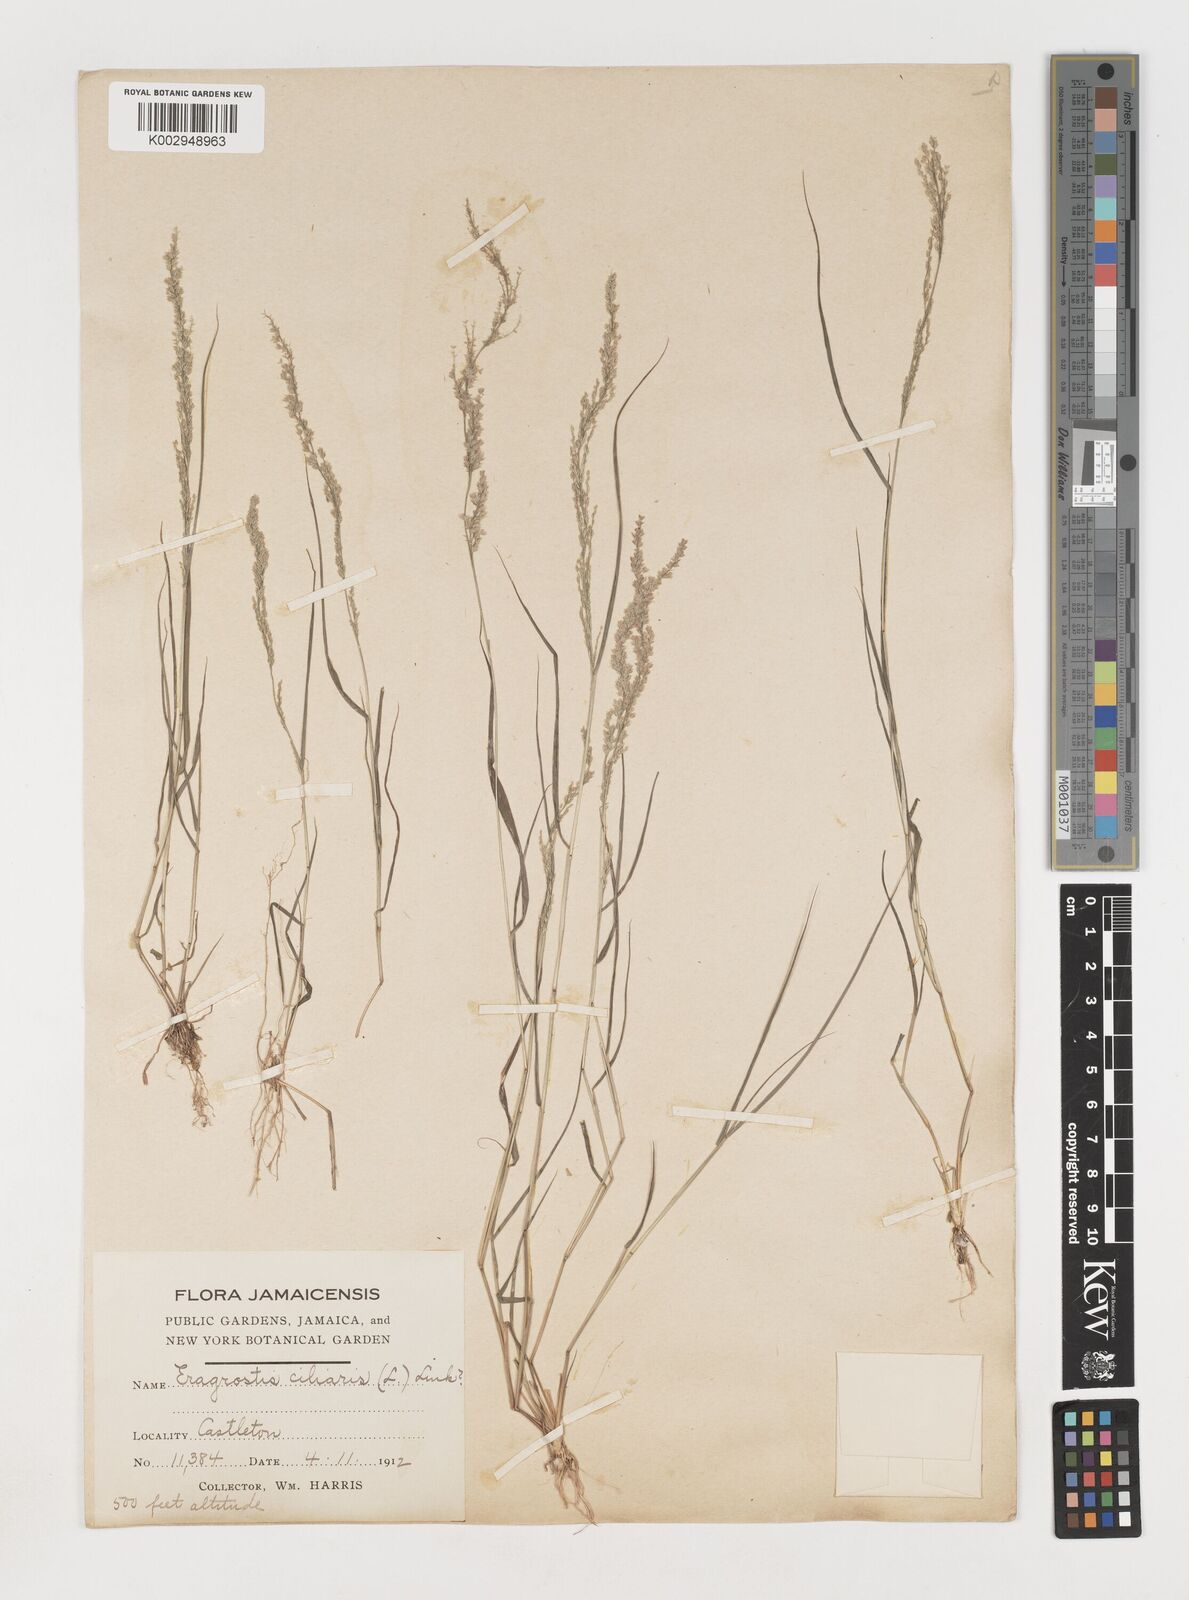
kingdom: Plantae
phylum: Tracheophyta
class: Liliopsida
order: Poales
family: Poaceae
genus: Eragrostis
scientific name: Eragrostis ciliaris
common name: Gophertail lovegrass
